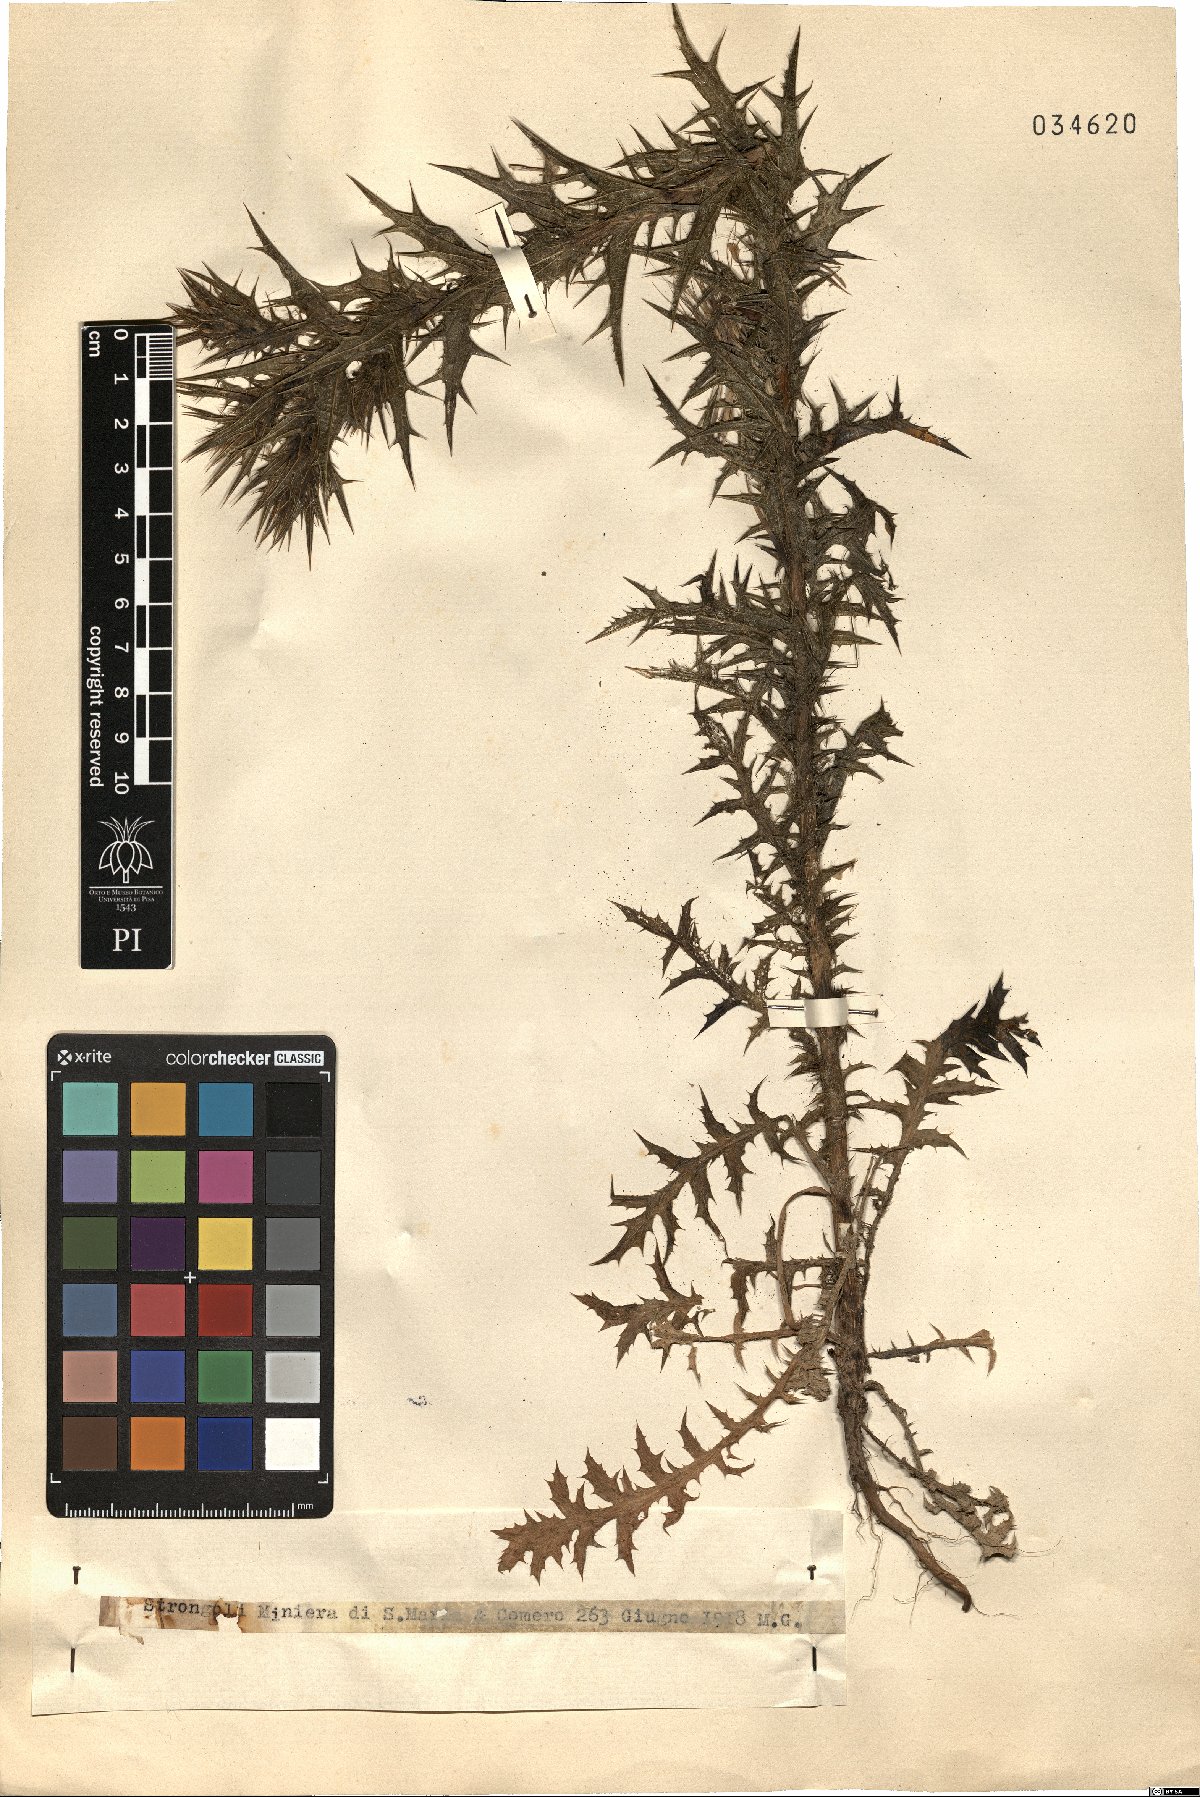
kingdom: Plantae
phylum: Tracheophyta
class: Magnoliopsida
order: Asterales
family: Asteraceae
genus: Carthamus
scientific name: Carthamus
